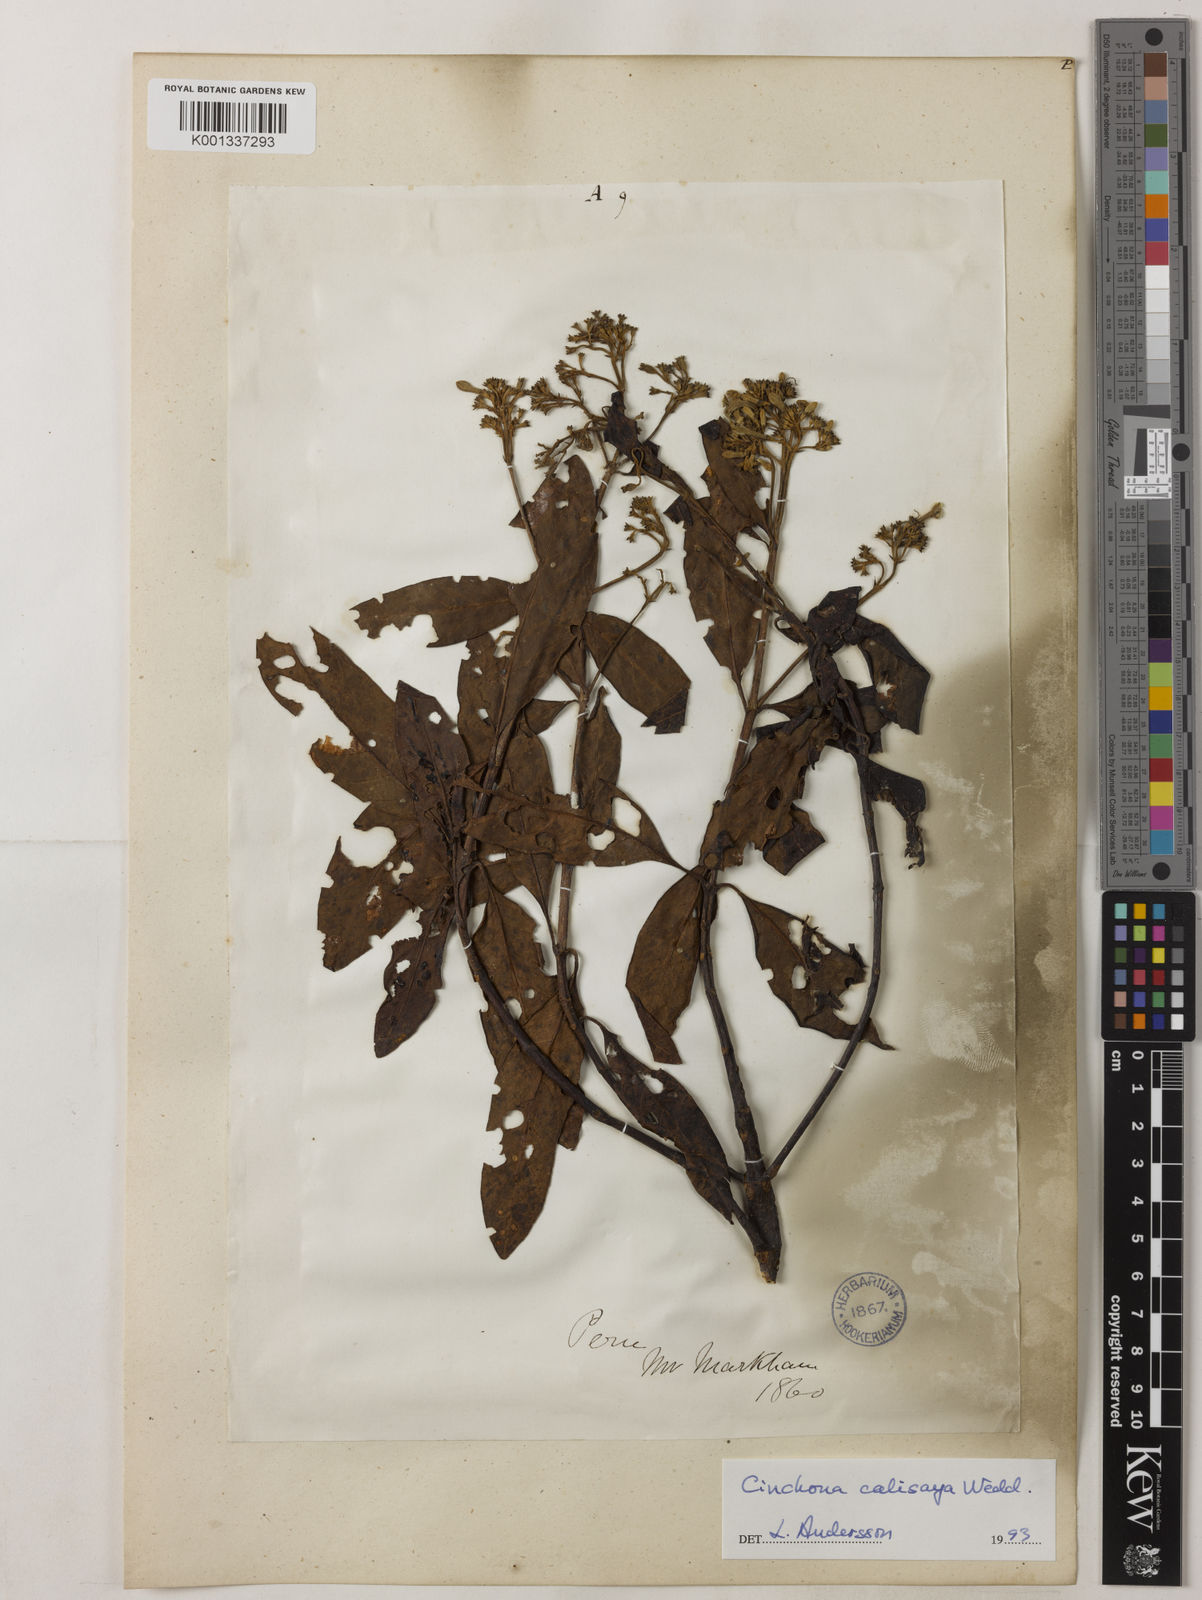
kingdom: Plantae
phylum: Tracheophyta
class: Magnoliopsida
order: Gentianales
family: Rubiaceae
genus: Cinchona
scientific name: Cinchona calisaya
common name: Ledgerbark
